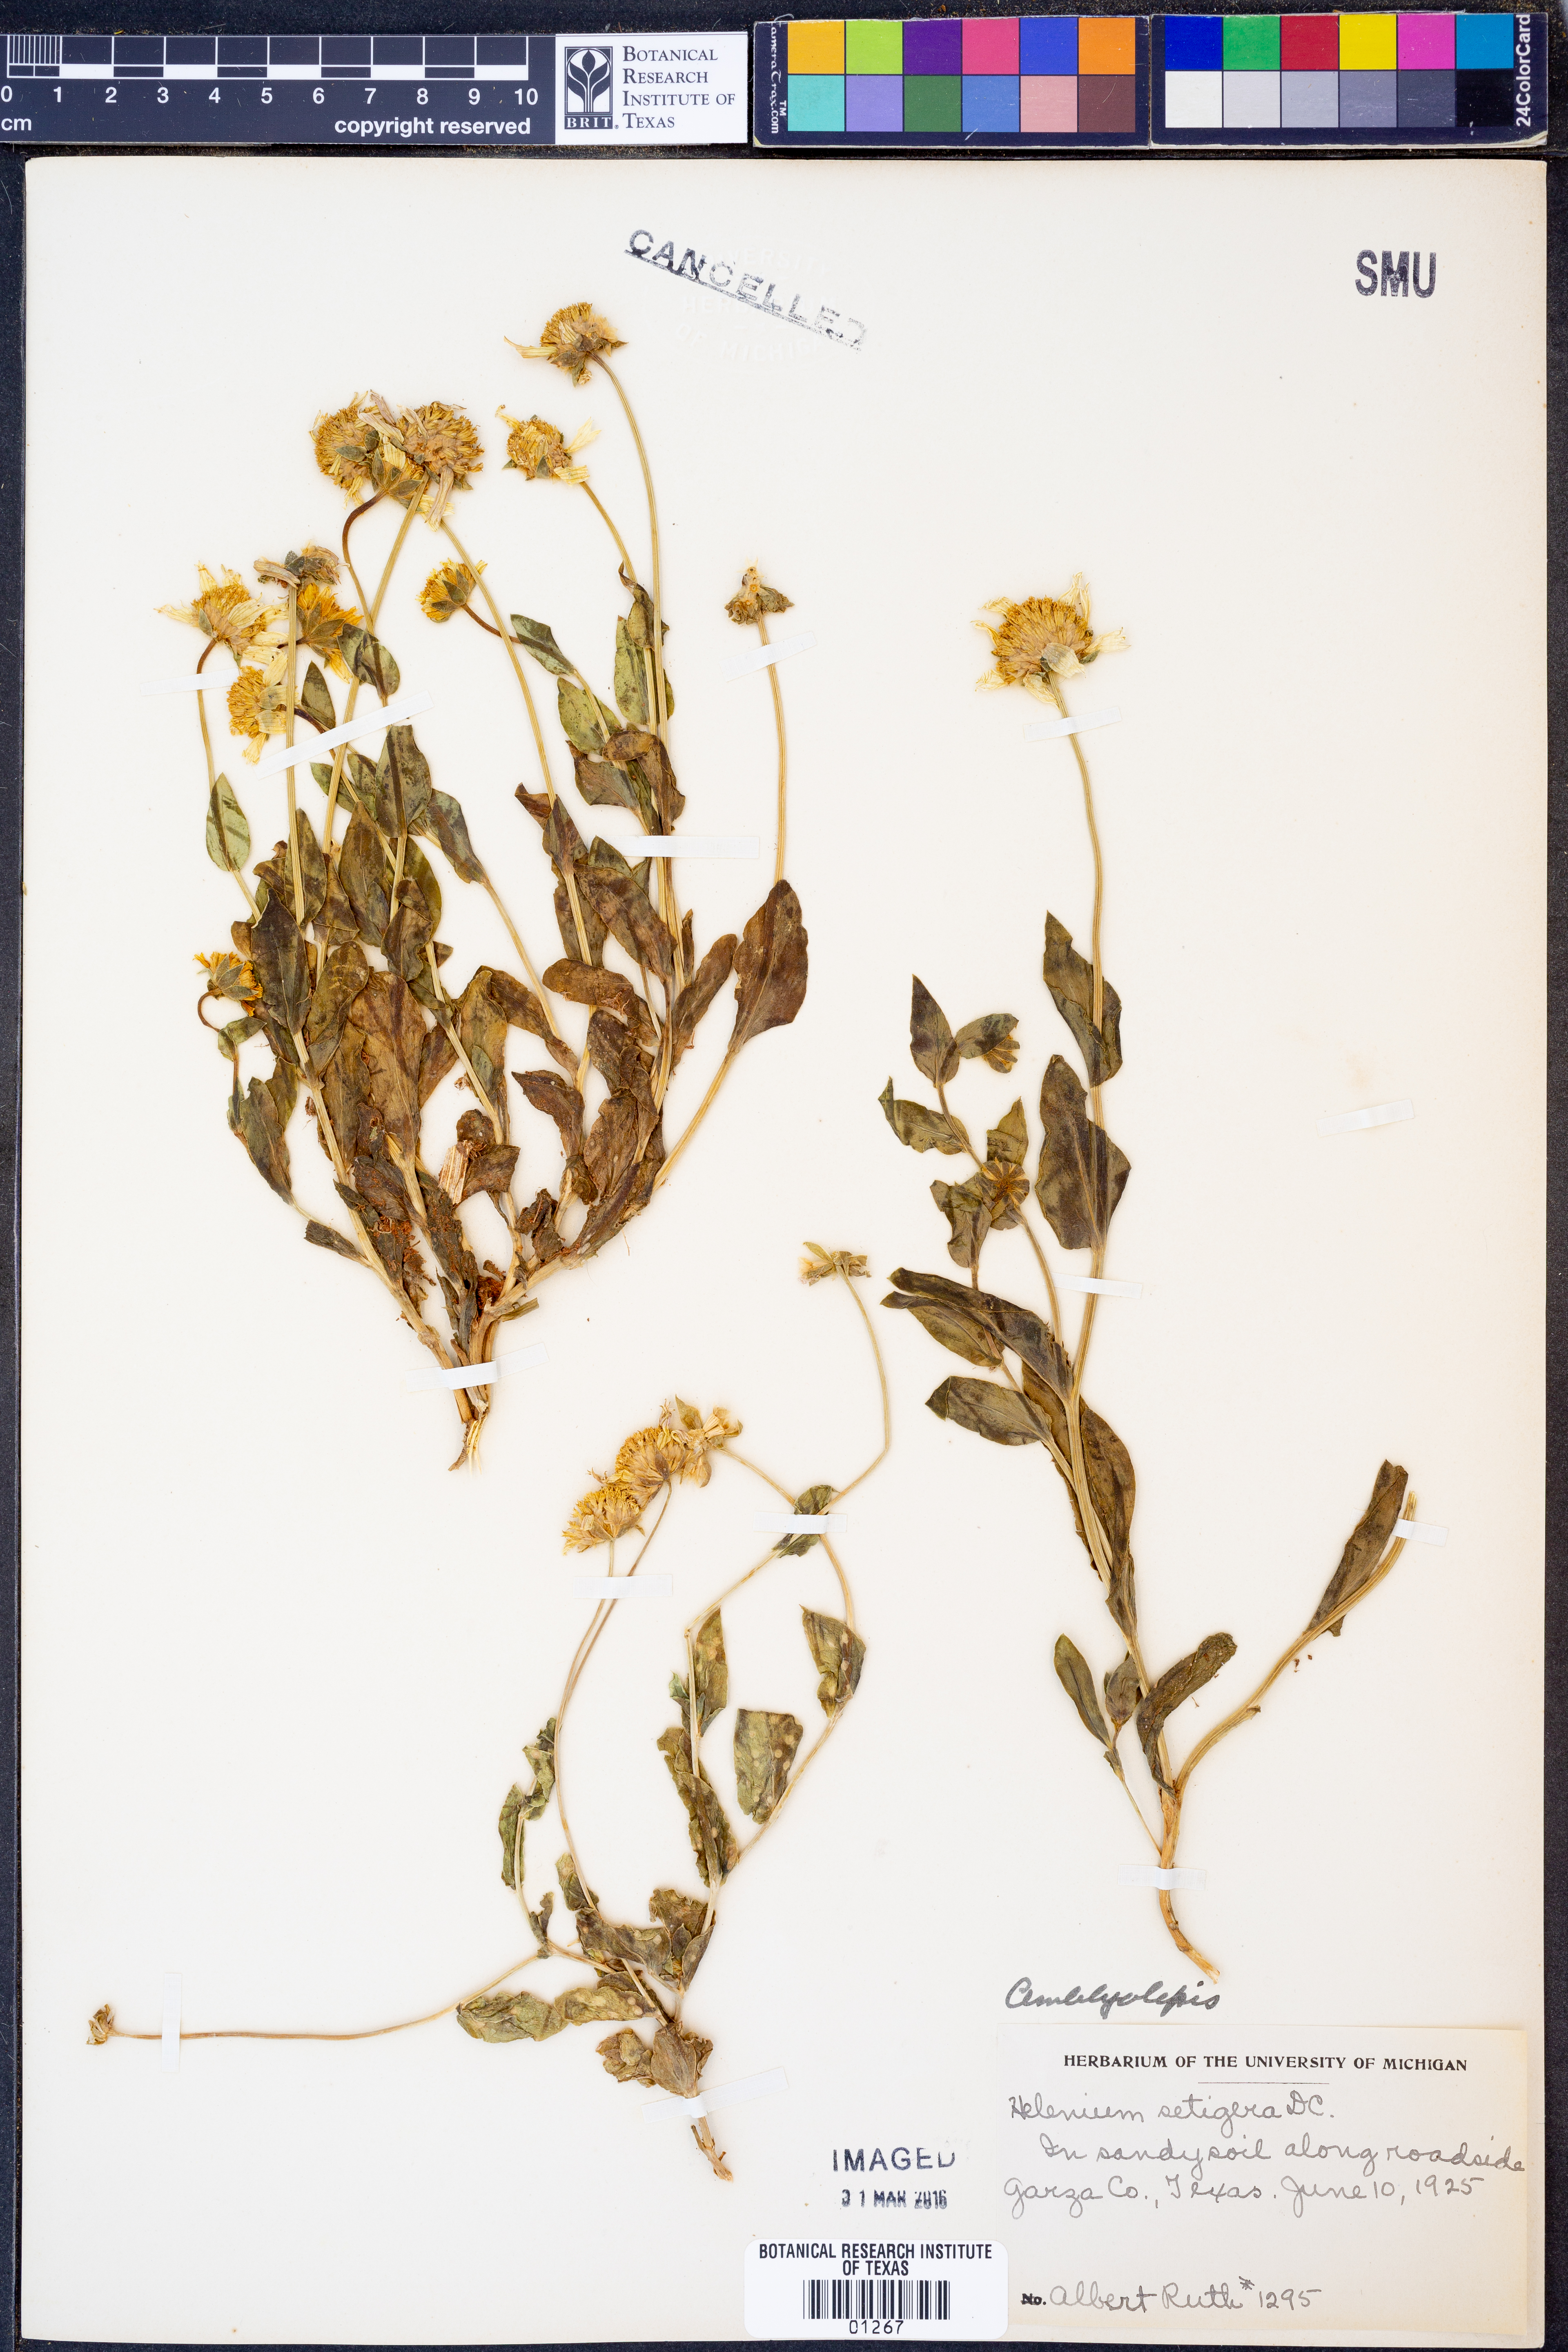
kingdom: Plantae
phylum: Tracheophyta
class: Magnoliopsida
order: Asterales
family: Asteraceae
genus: Amblyolepis
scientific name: Amblyolepis setigera
